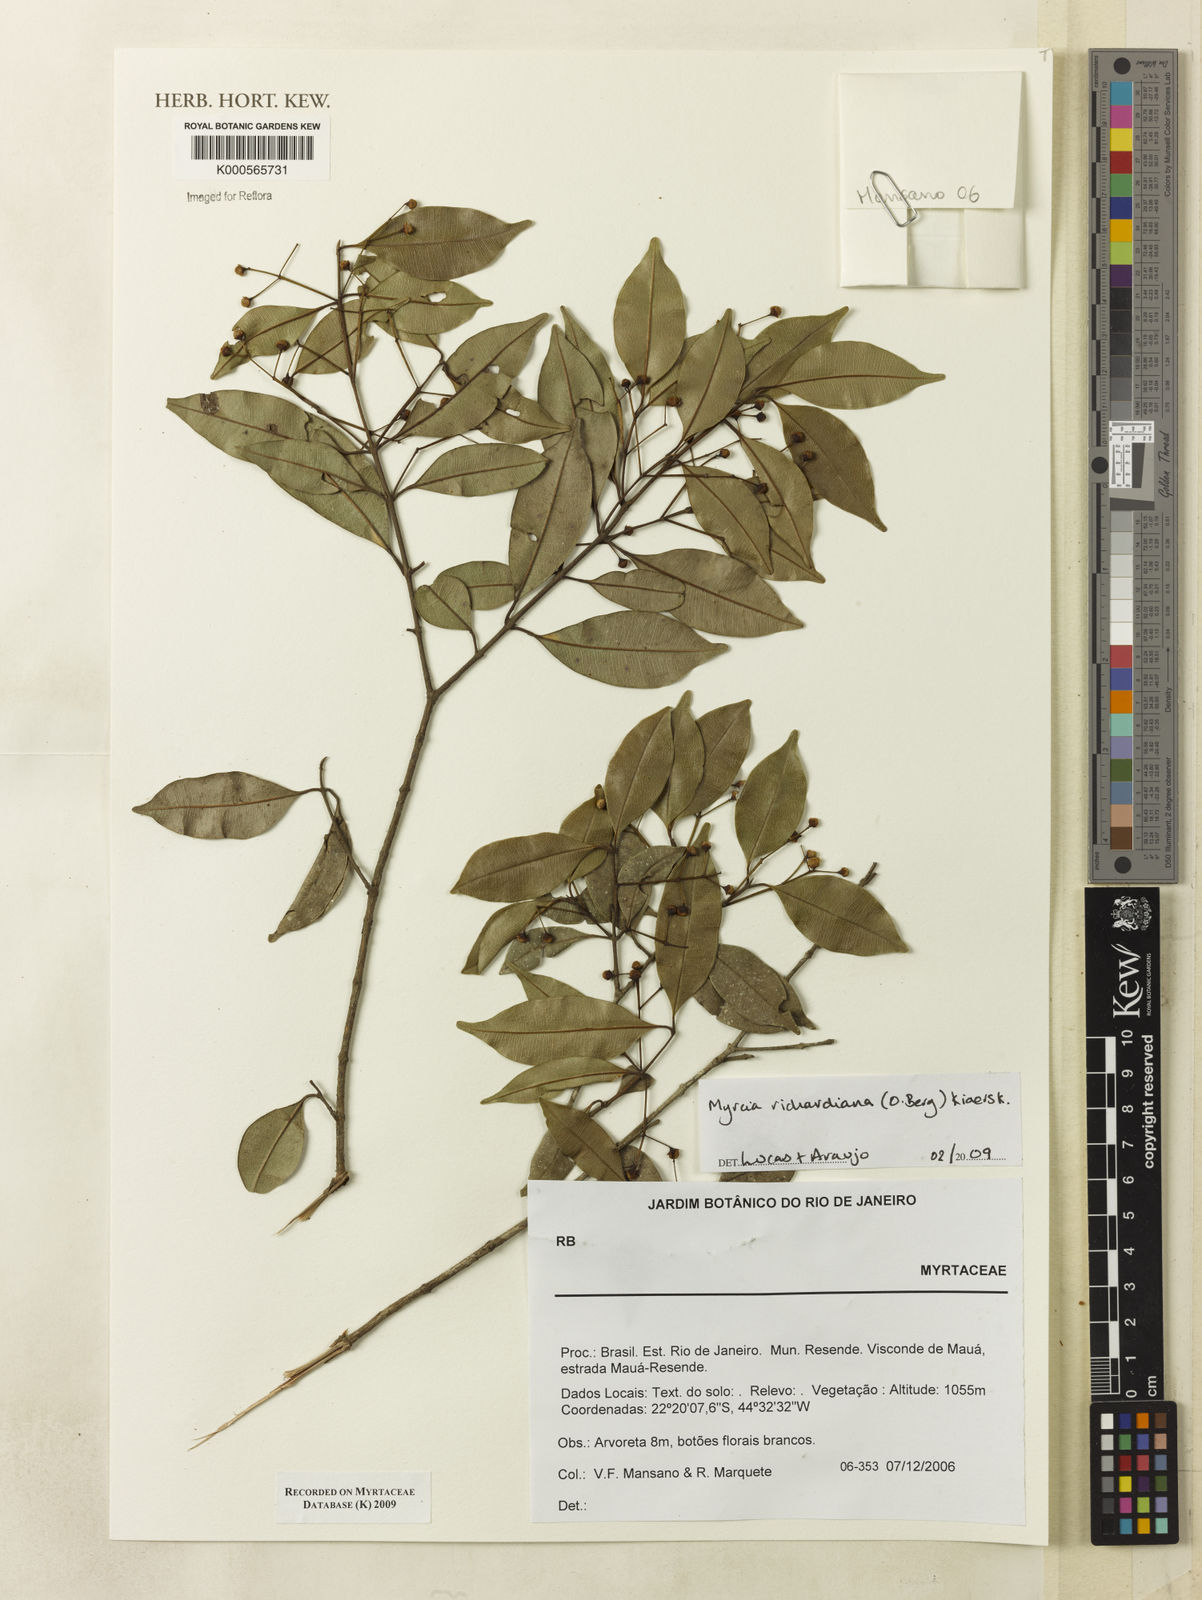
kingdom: Plantae
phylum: Tracheophyta
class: Magnoliopsida
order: Myrtales
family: Myrtaceae
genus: Myrcia
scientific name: Myrcia richardiana
